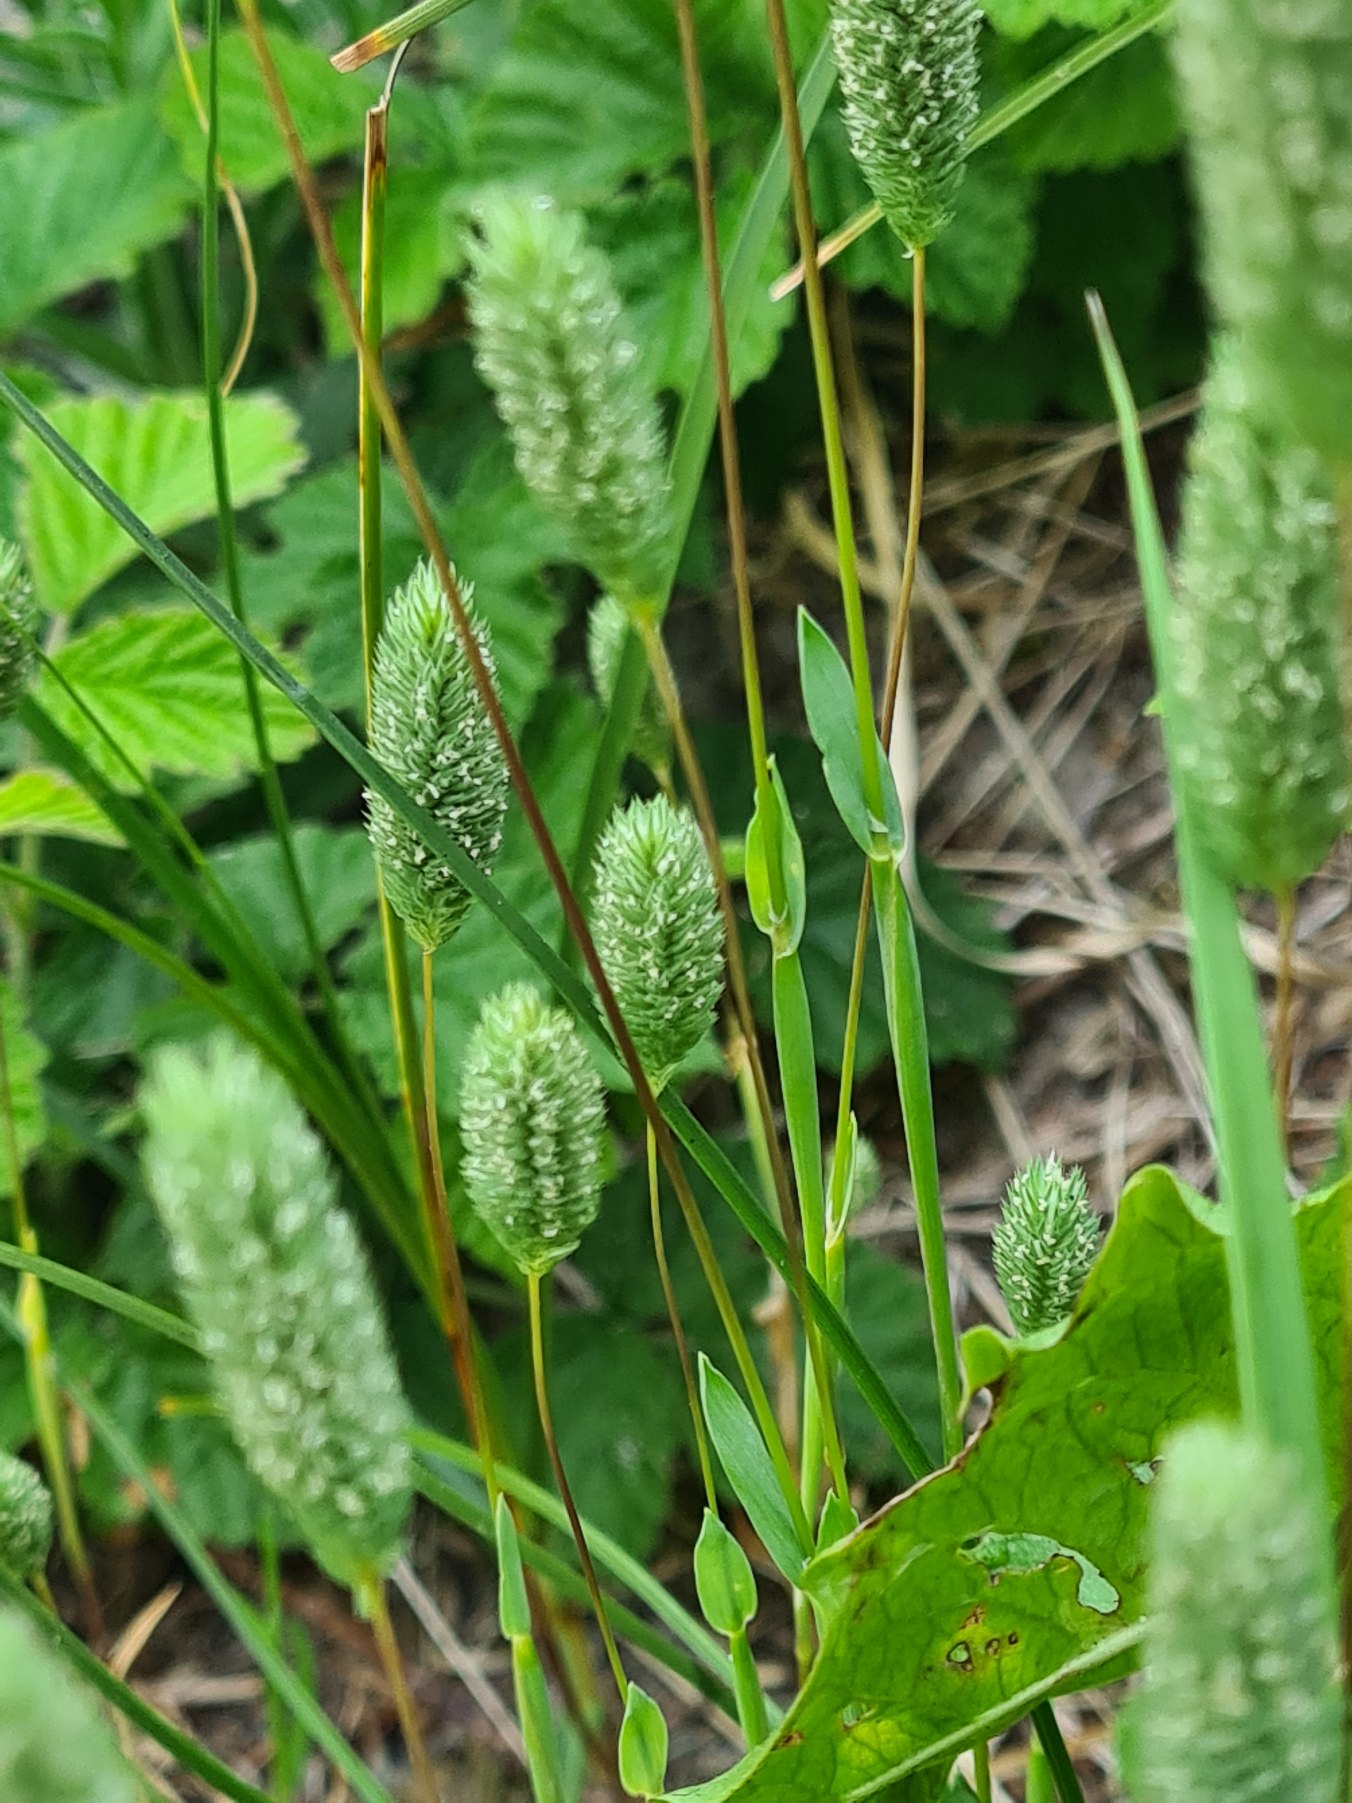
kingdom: Plantae
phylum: Tracheophyta
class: Liliopsida
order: Poales
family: Poaceae
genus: Phleum
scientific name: Phleum arenarium
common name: Sand-rottehale
